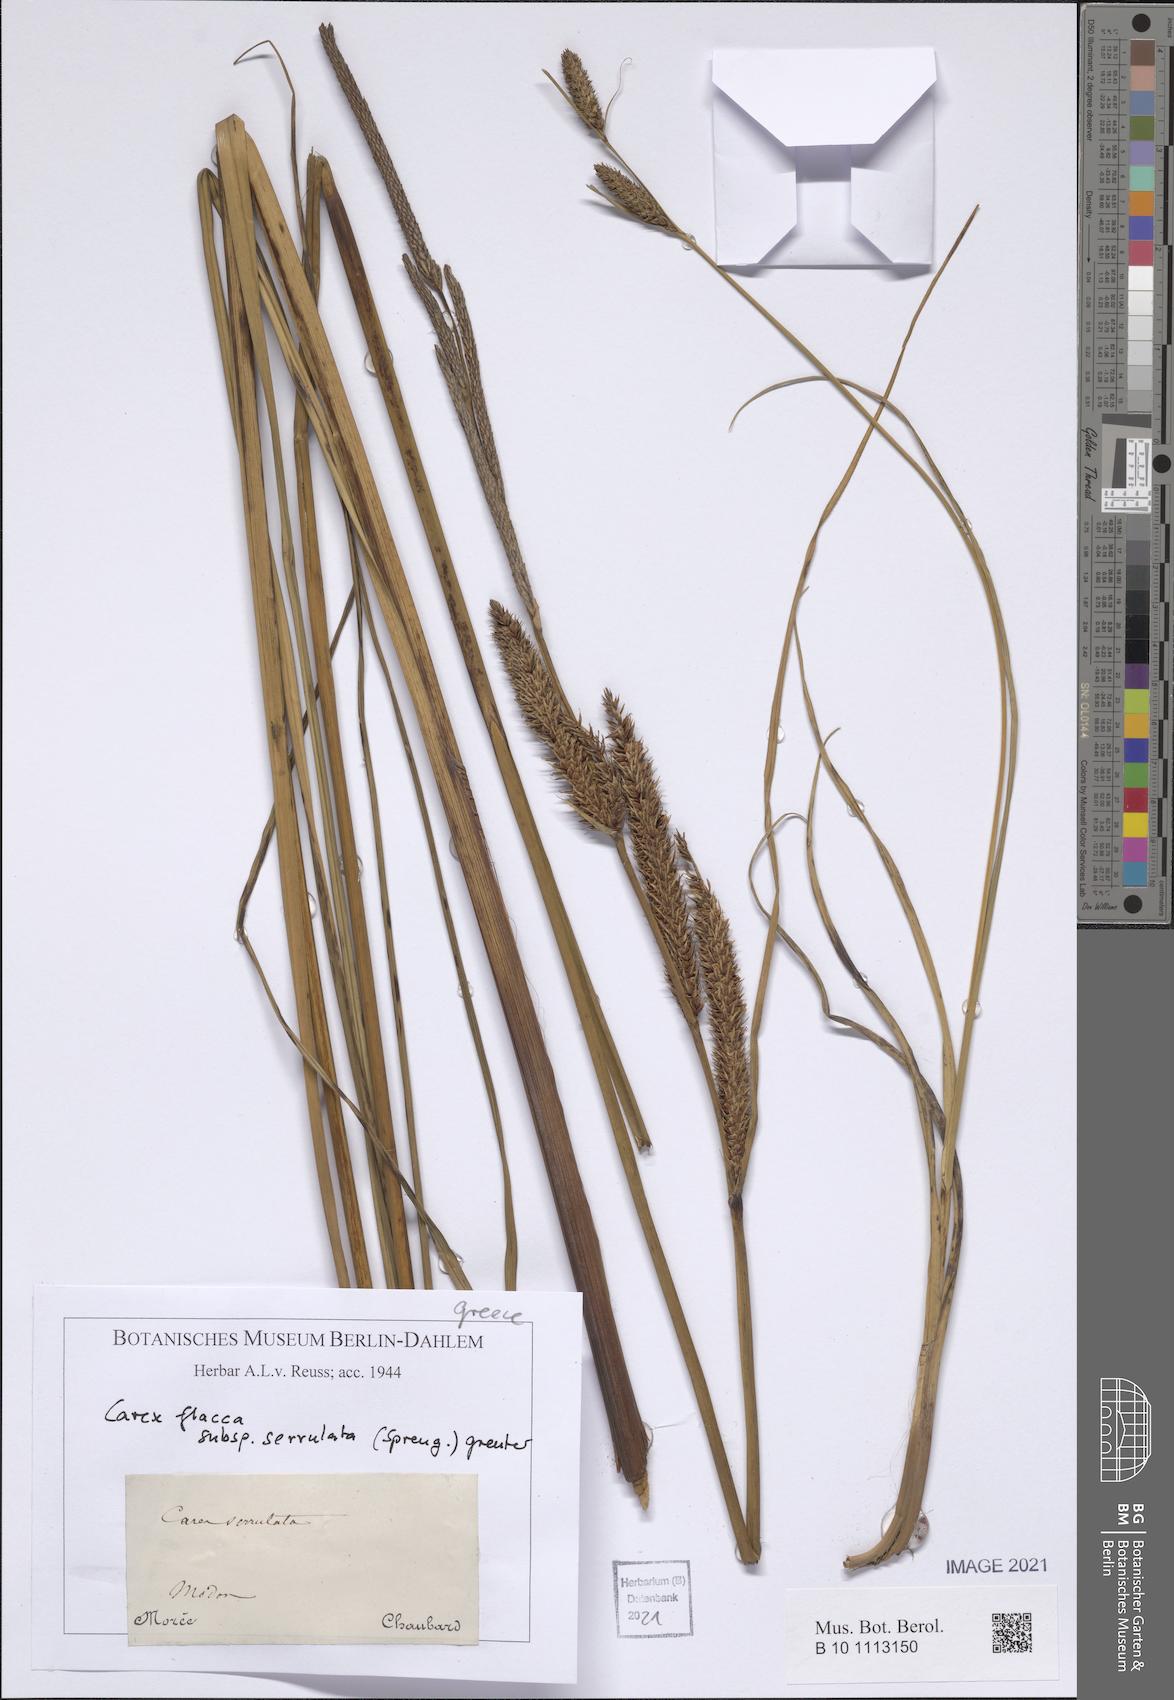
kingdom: Plantae
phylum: Tracheophyta
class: Liliopsida
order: Poales
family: Cyperaceae
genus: Carex
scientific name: Carex flacca
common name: Glaucous sedge
